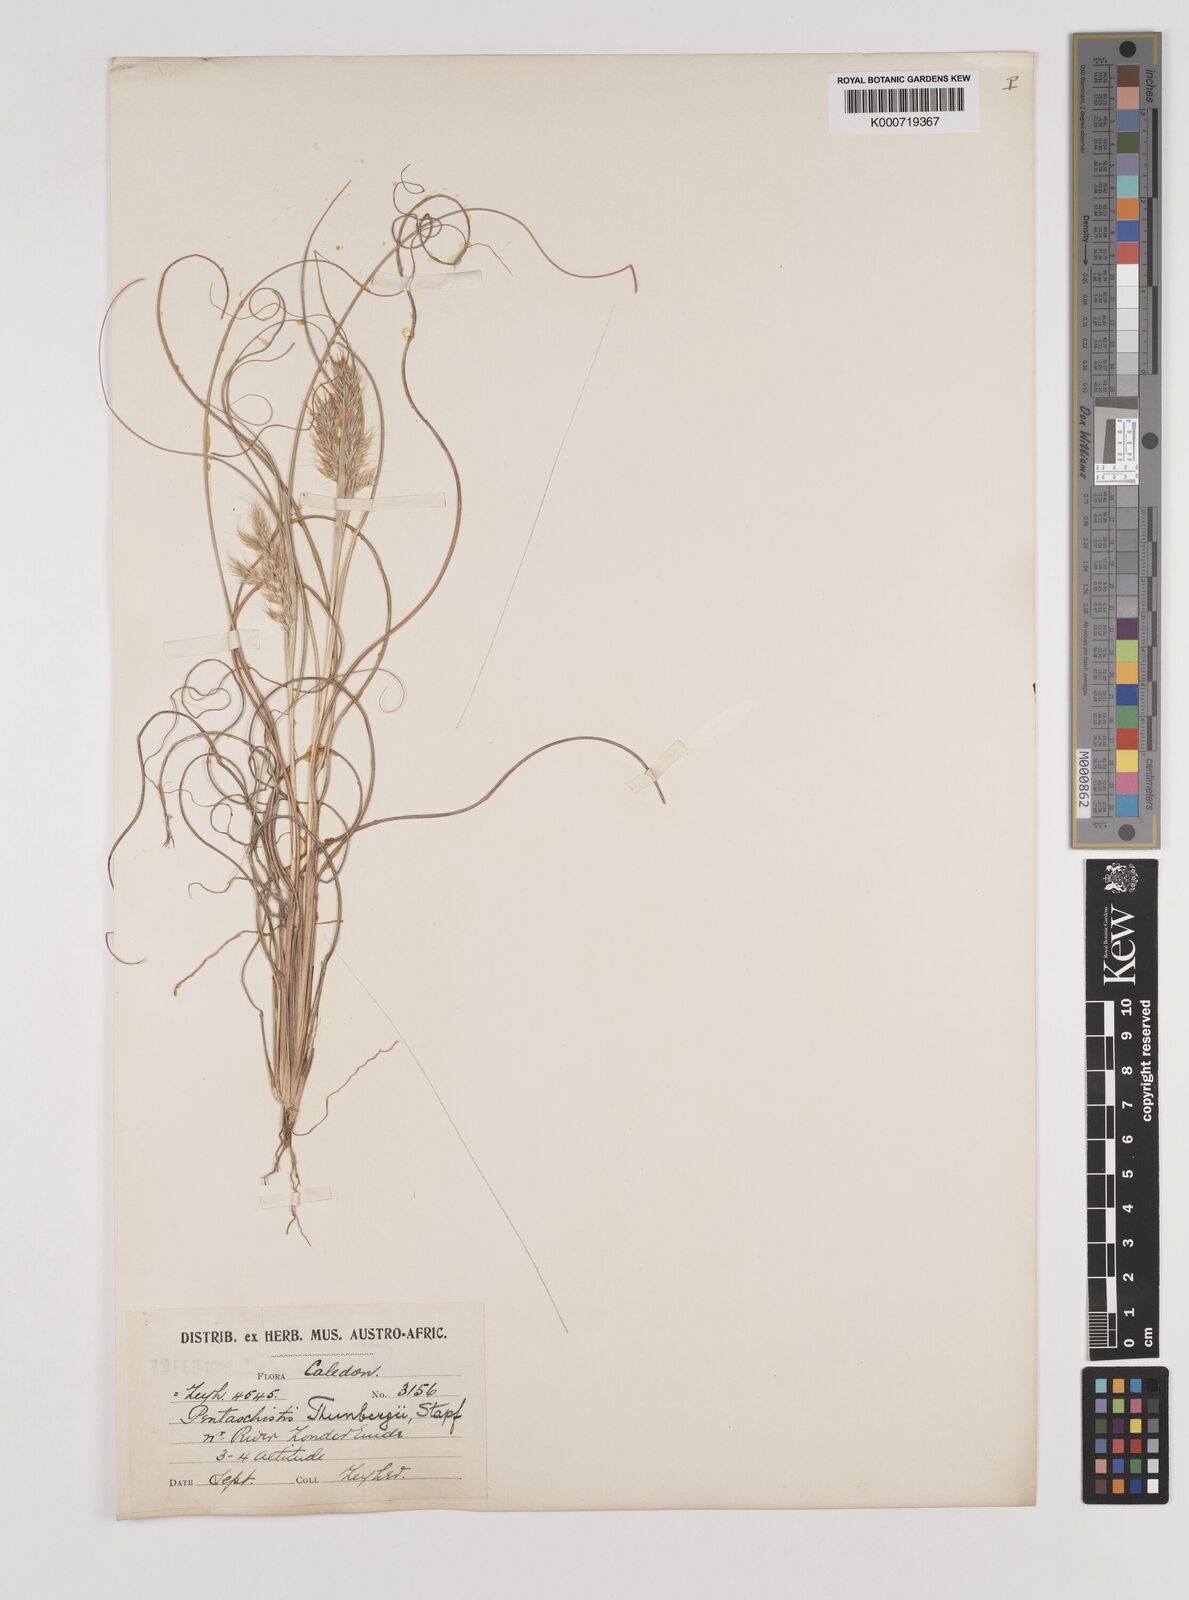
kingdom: Plantae
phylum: Tracheophyta
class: Liliopsida
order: Poales
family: Poaceae
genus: Pentameris
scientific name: Pentameris triseta
